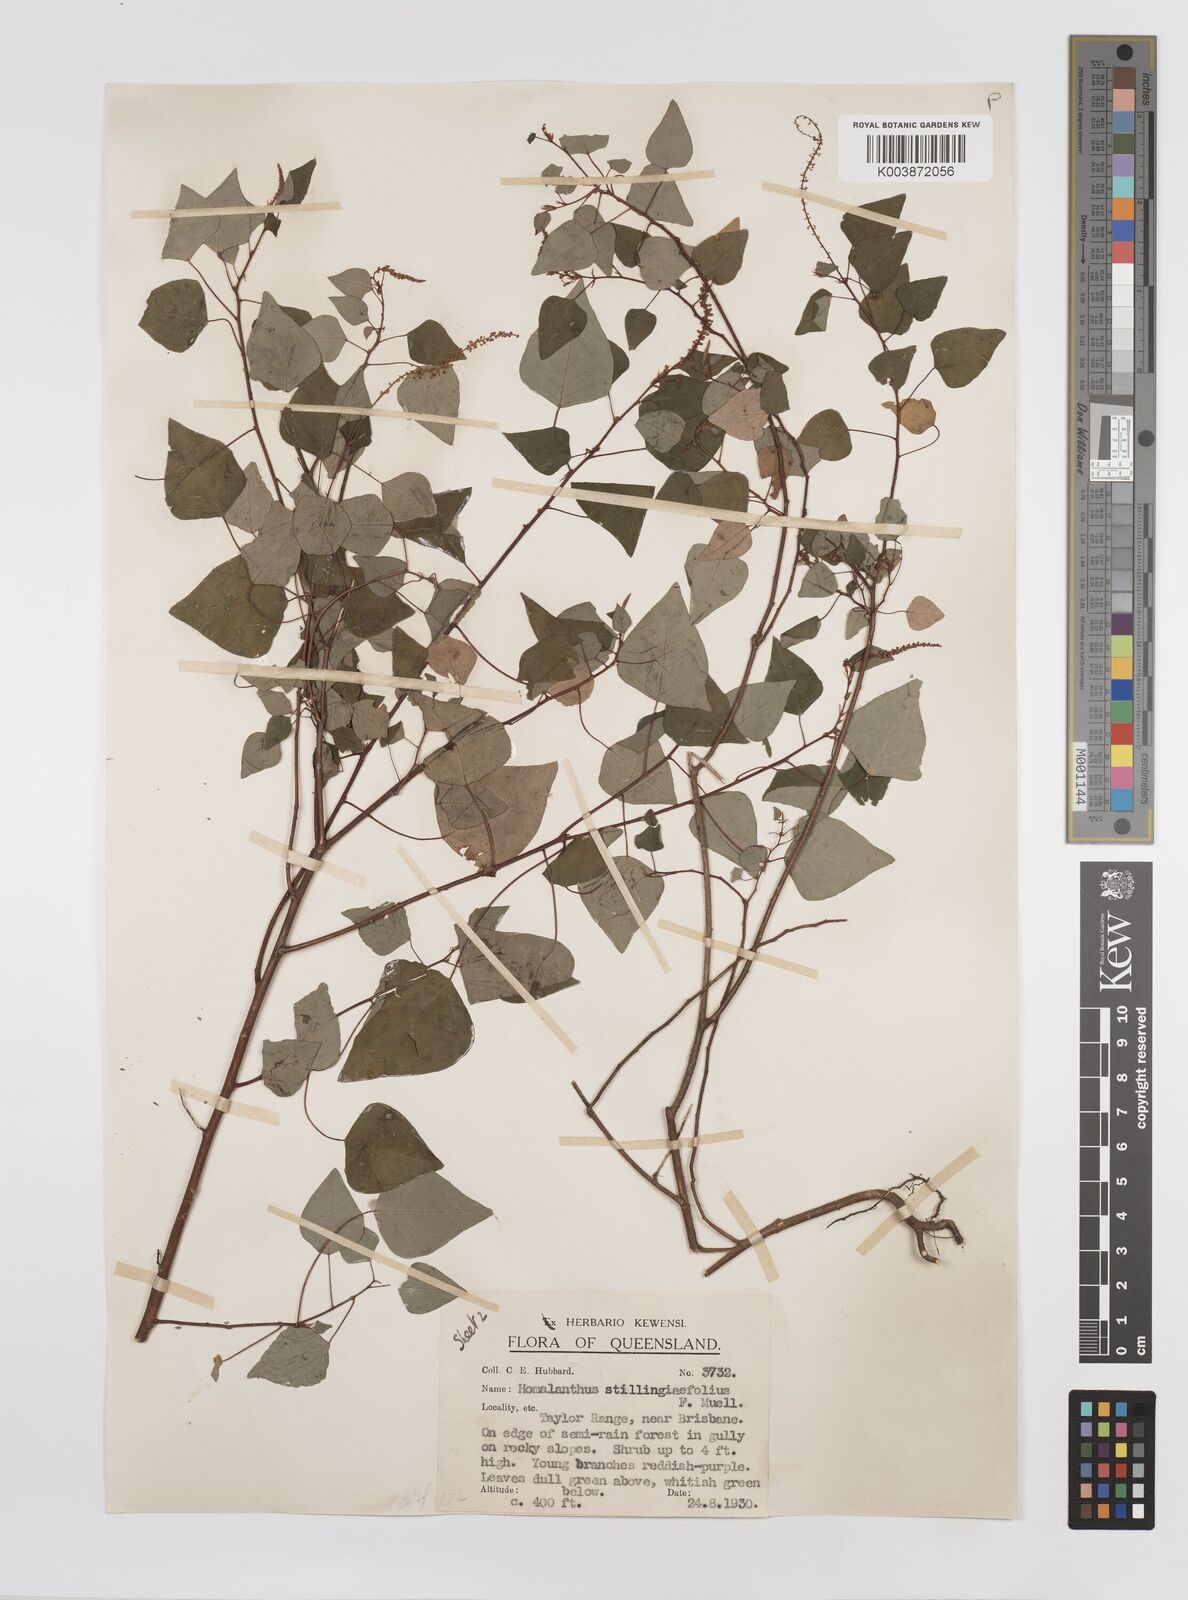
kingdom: Plantae
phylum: Tracheophyta
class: Magnoliopsida
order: Malpighiales
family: Euphorbiaceae
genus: Homalanthus
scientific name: Homalanthus stillingifolius
